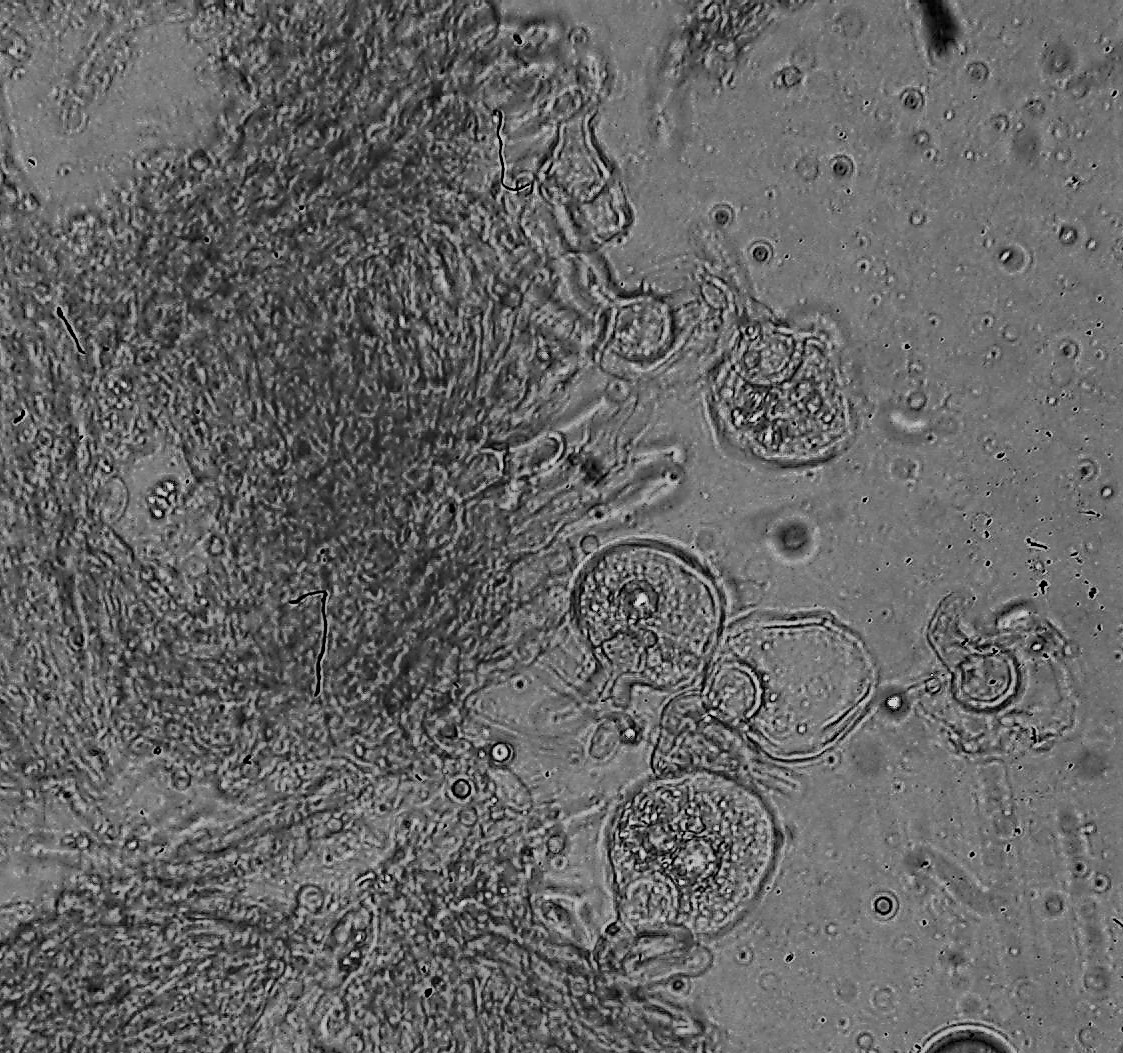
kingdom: Fungi
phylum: Basidiomycota
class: Agaricomycetes
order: Hymenochaetales
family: Rickenellaceae
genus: Resinicium
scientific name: Resinicium bicolor
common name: almindelig vokstand
